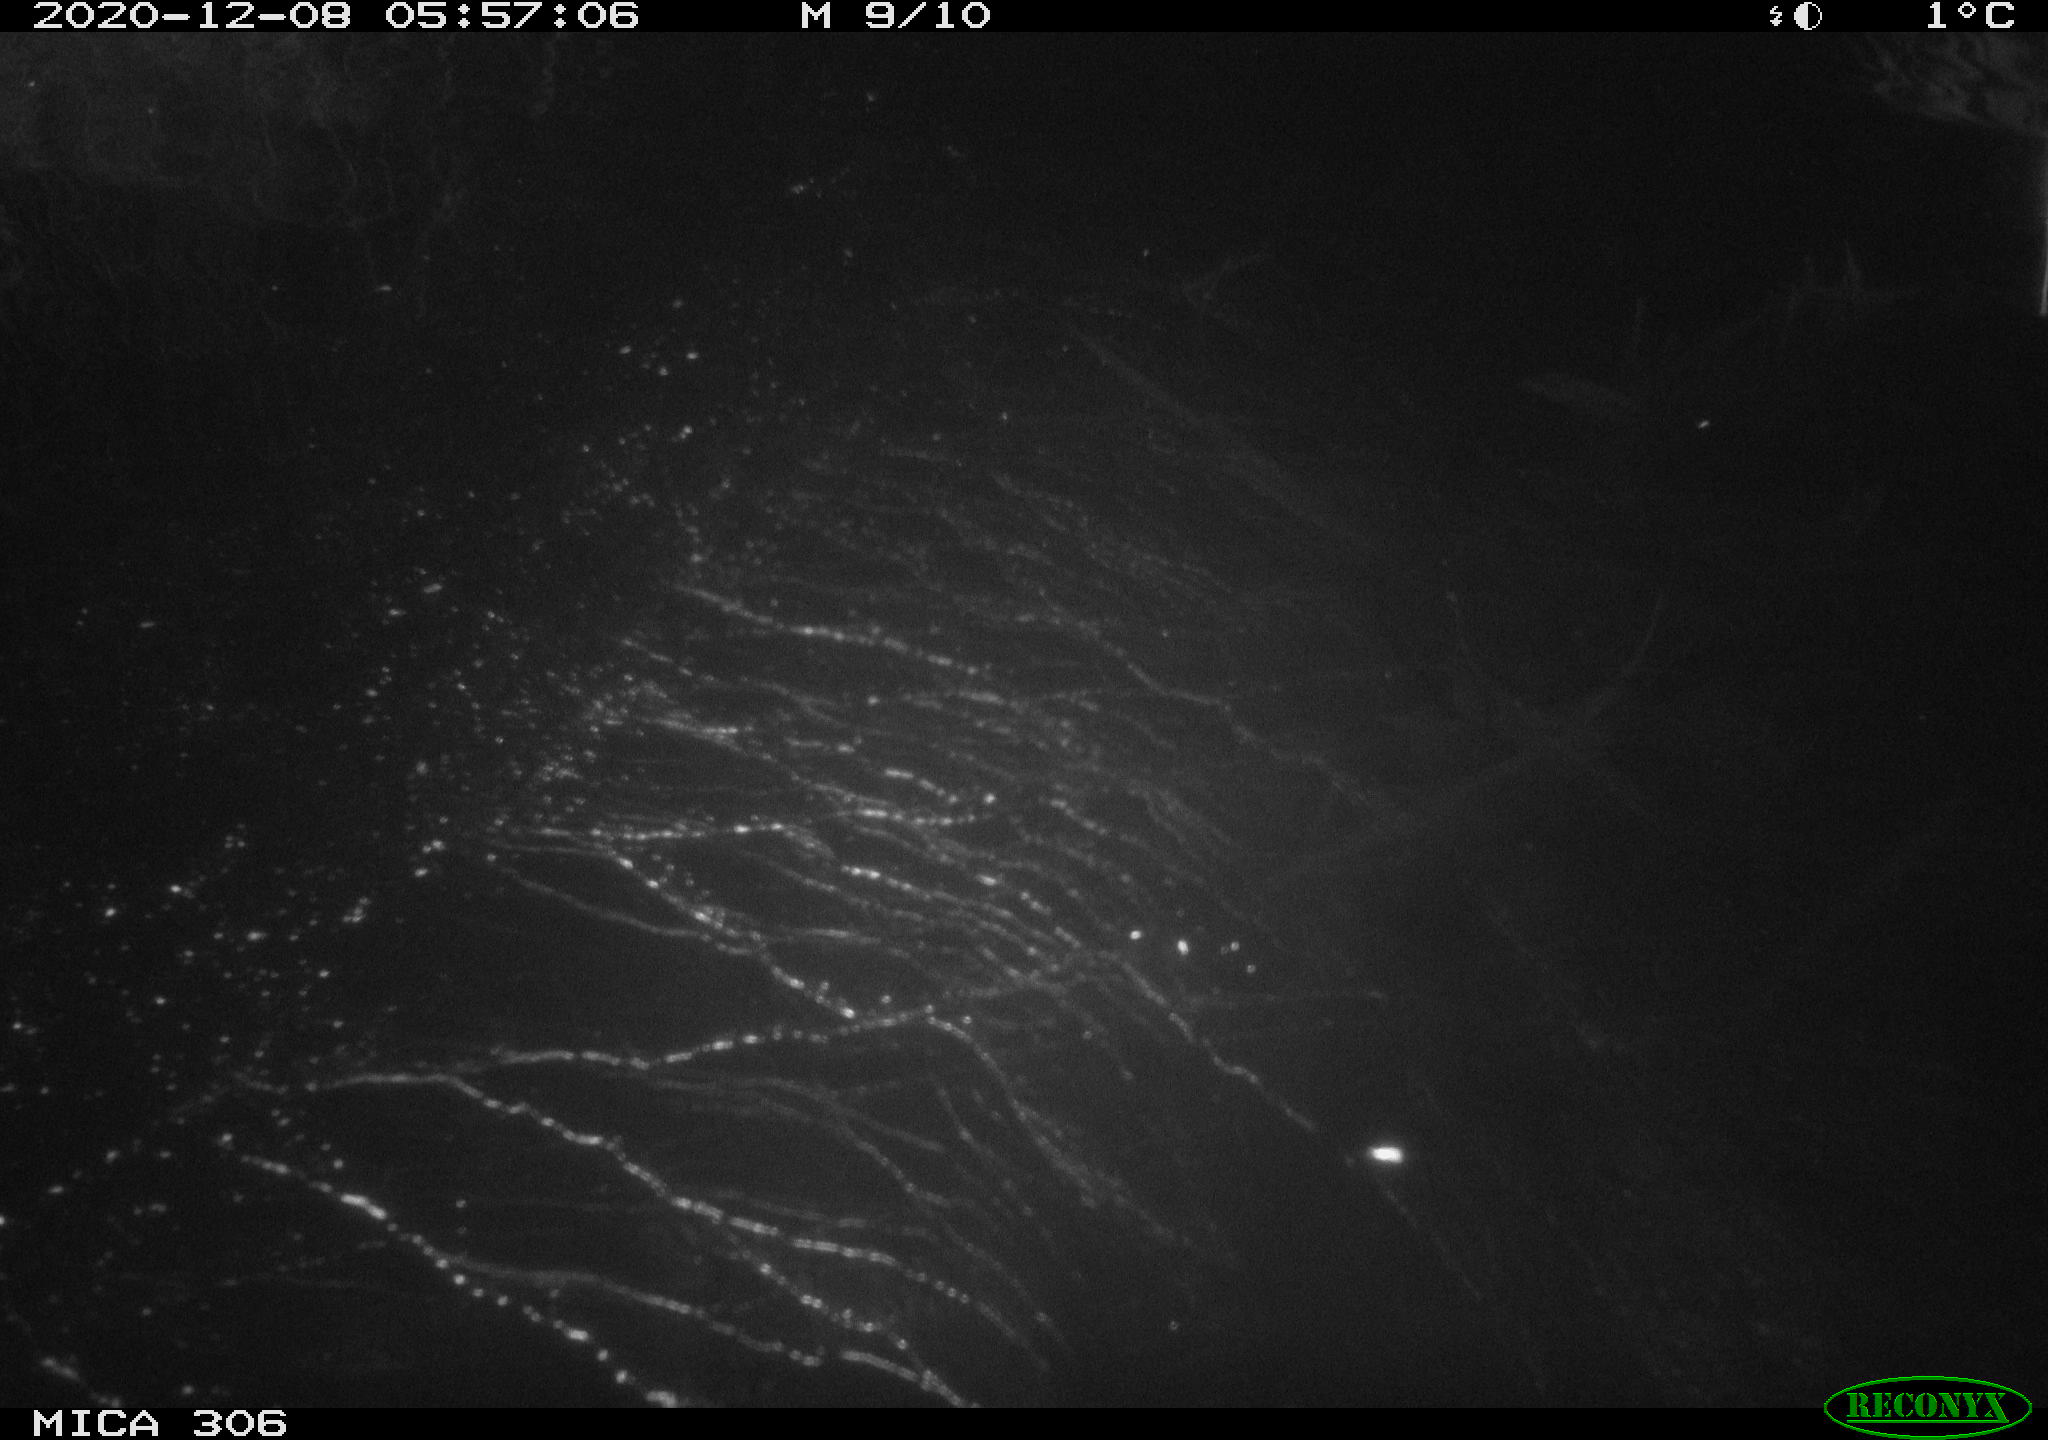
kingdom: Animalia
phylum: Chordata
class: Mammalia
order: Rodentia
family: Cricetidae
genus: Ondatra
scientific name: Ondatra zibethicus
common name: Muskrat
